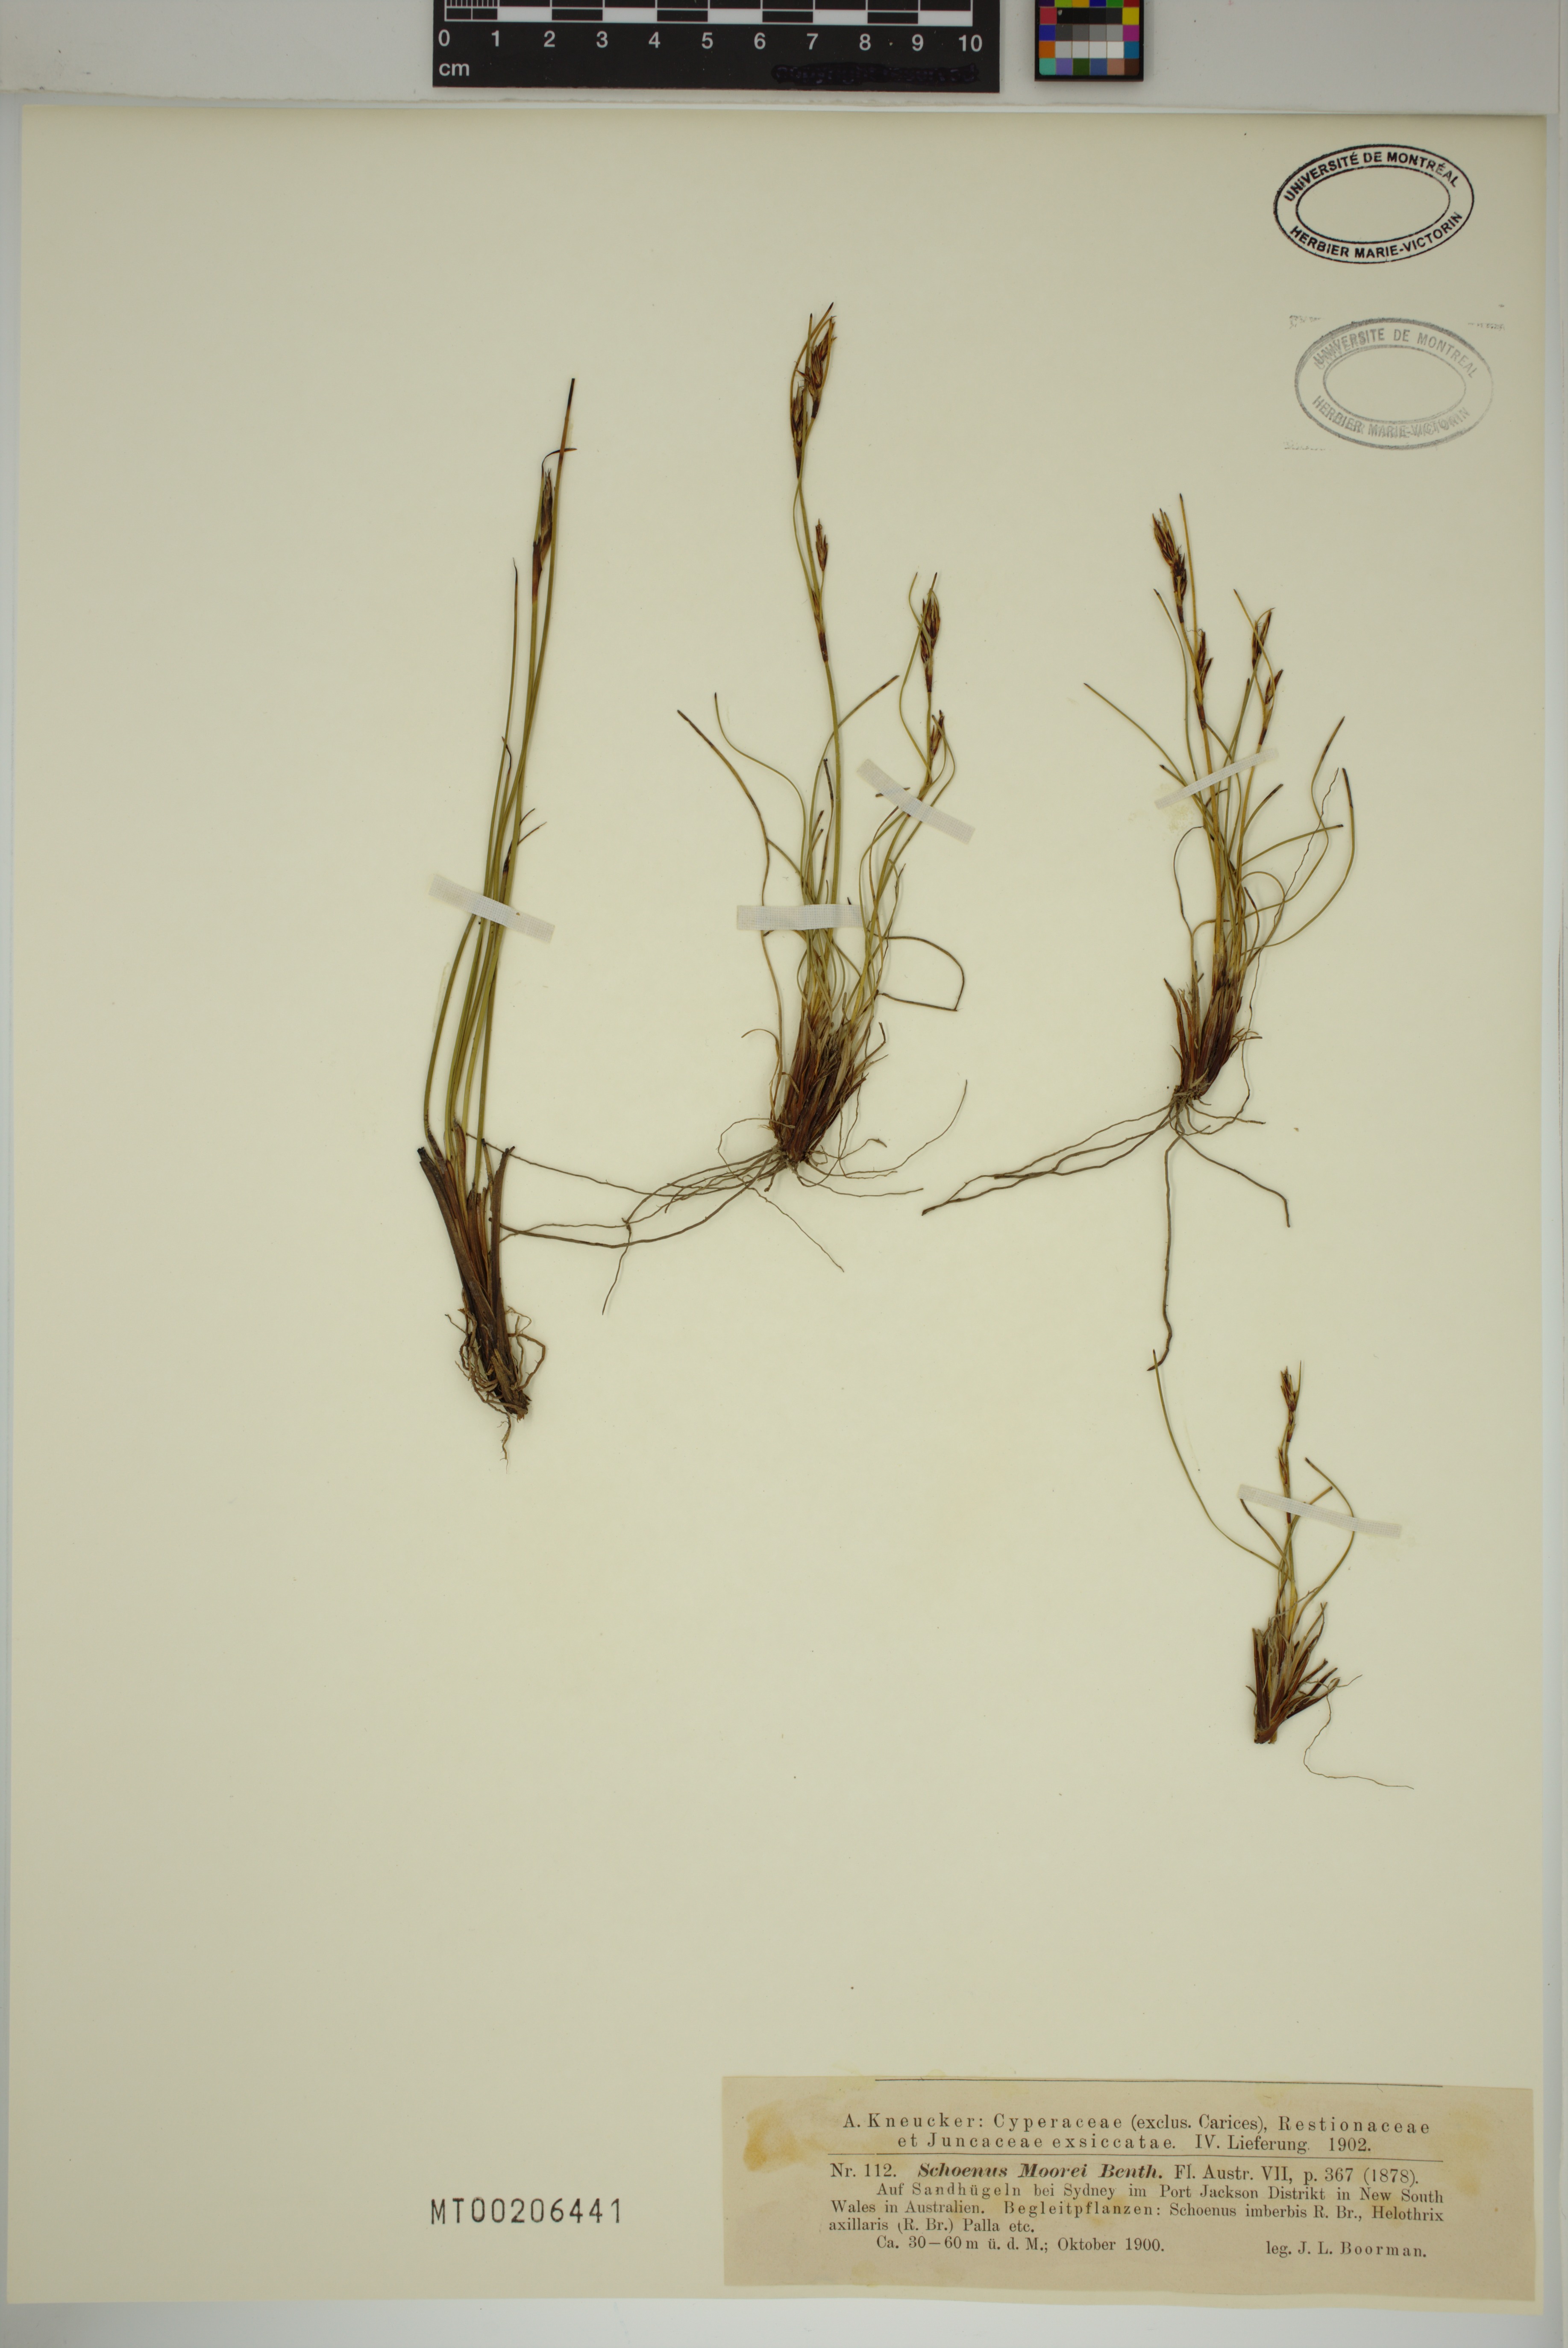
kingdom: Plantae
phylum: Tracheophyta
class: Liliopsida
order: Poales
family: Cyperaceae
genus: Schoenus
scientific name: Schoenus moorei
